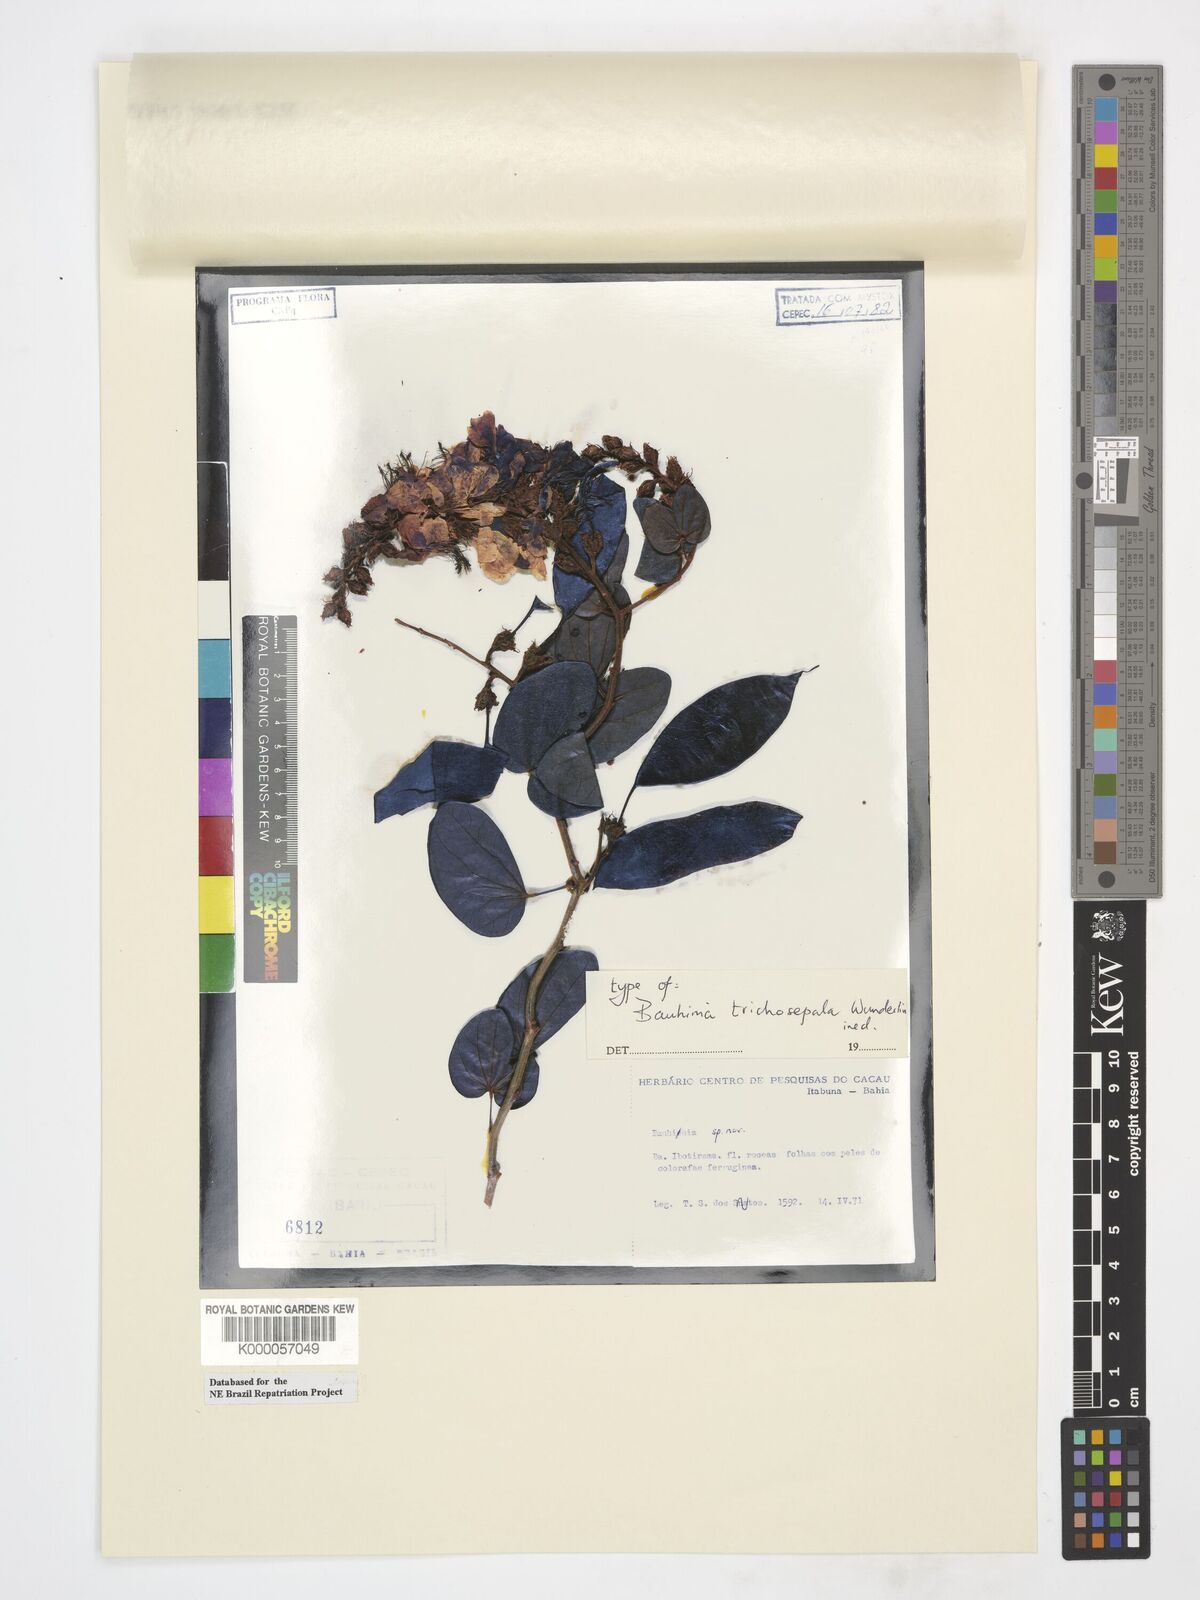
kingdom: Plantae
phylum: Tracheophyta
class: Magnoliopsida
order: Fabales
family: Fabaceae
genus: Schnella
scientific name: Schnella trichosepala
